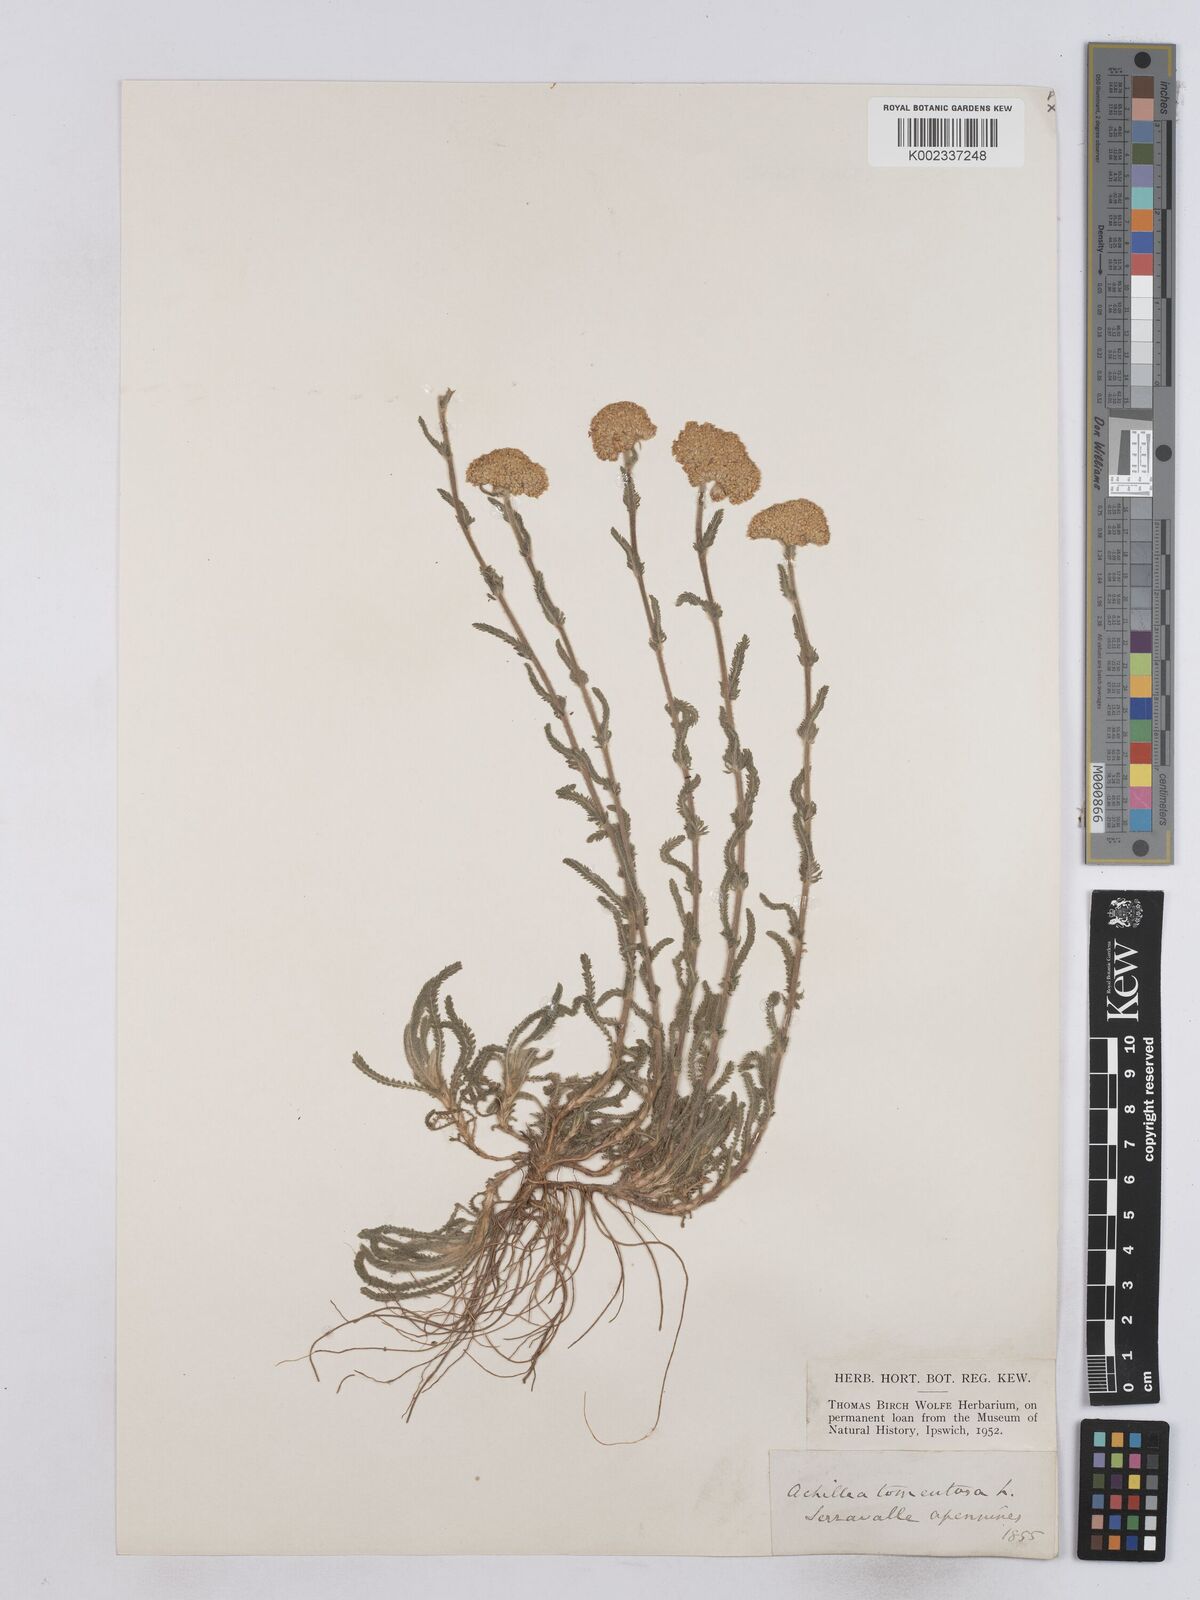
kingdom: Plantae
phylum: Tracheophyta
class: Magnoliopsida
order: Asterales
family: Asteraceae
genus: Achillea
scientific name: Achillea tomentosa
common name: Yellow milfoil
